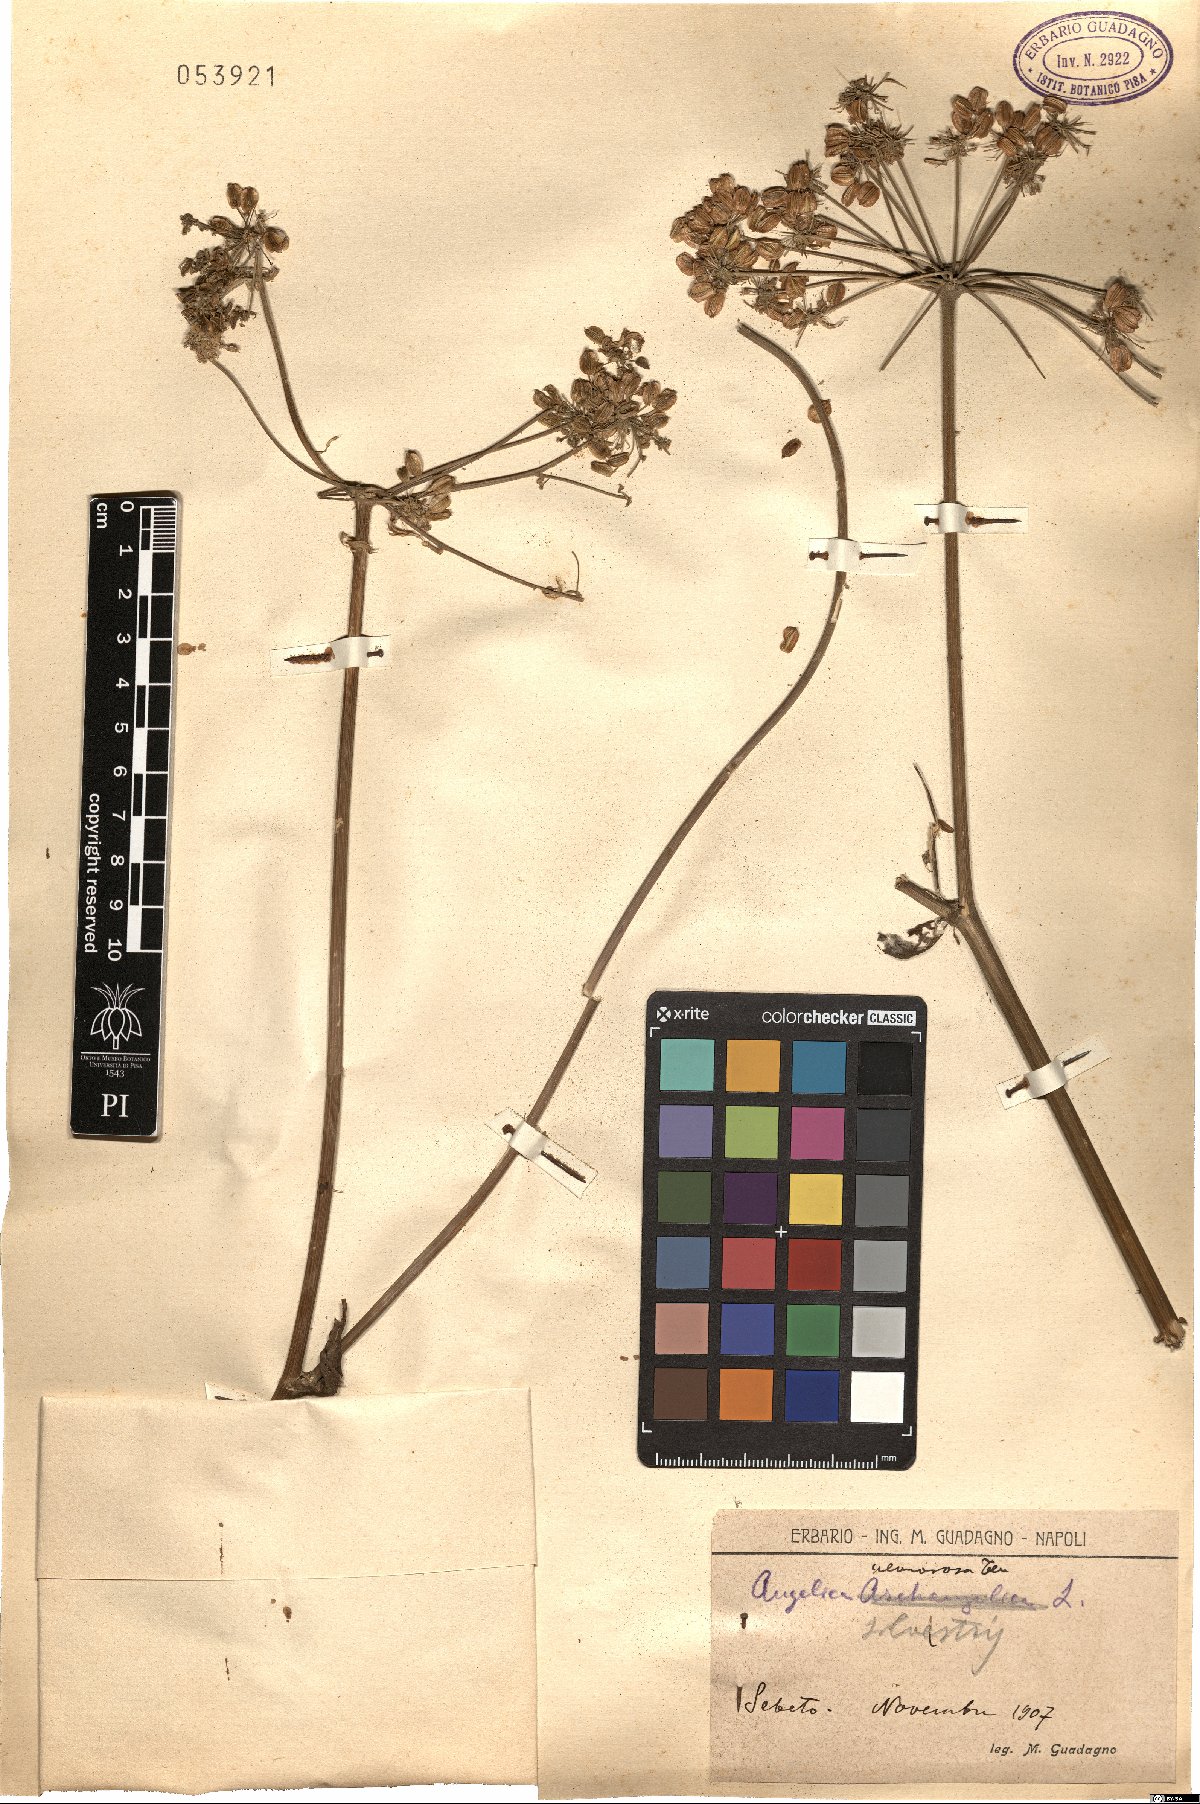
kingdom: Plantae
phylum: Tracheophyta
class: Magnoliopsida
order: Apiales
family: Apiaceae
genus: Angelica
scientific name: Angelica sylvestris
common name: Wild angelica
